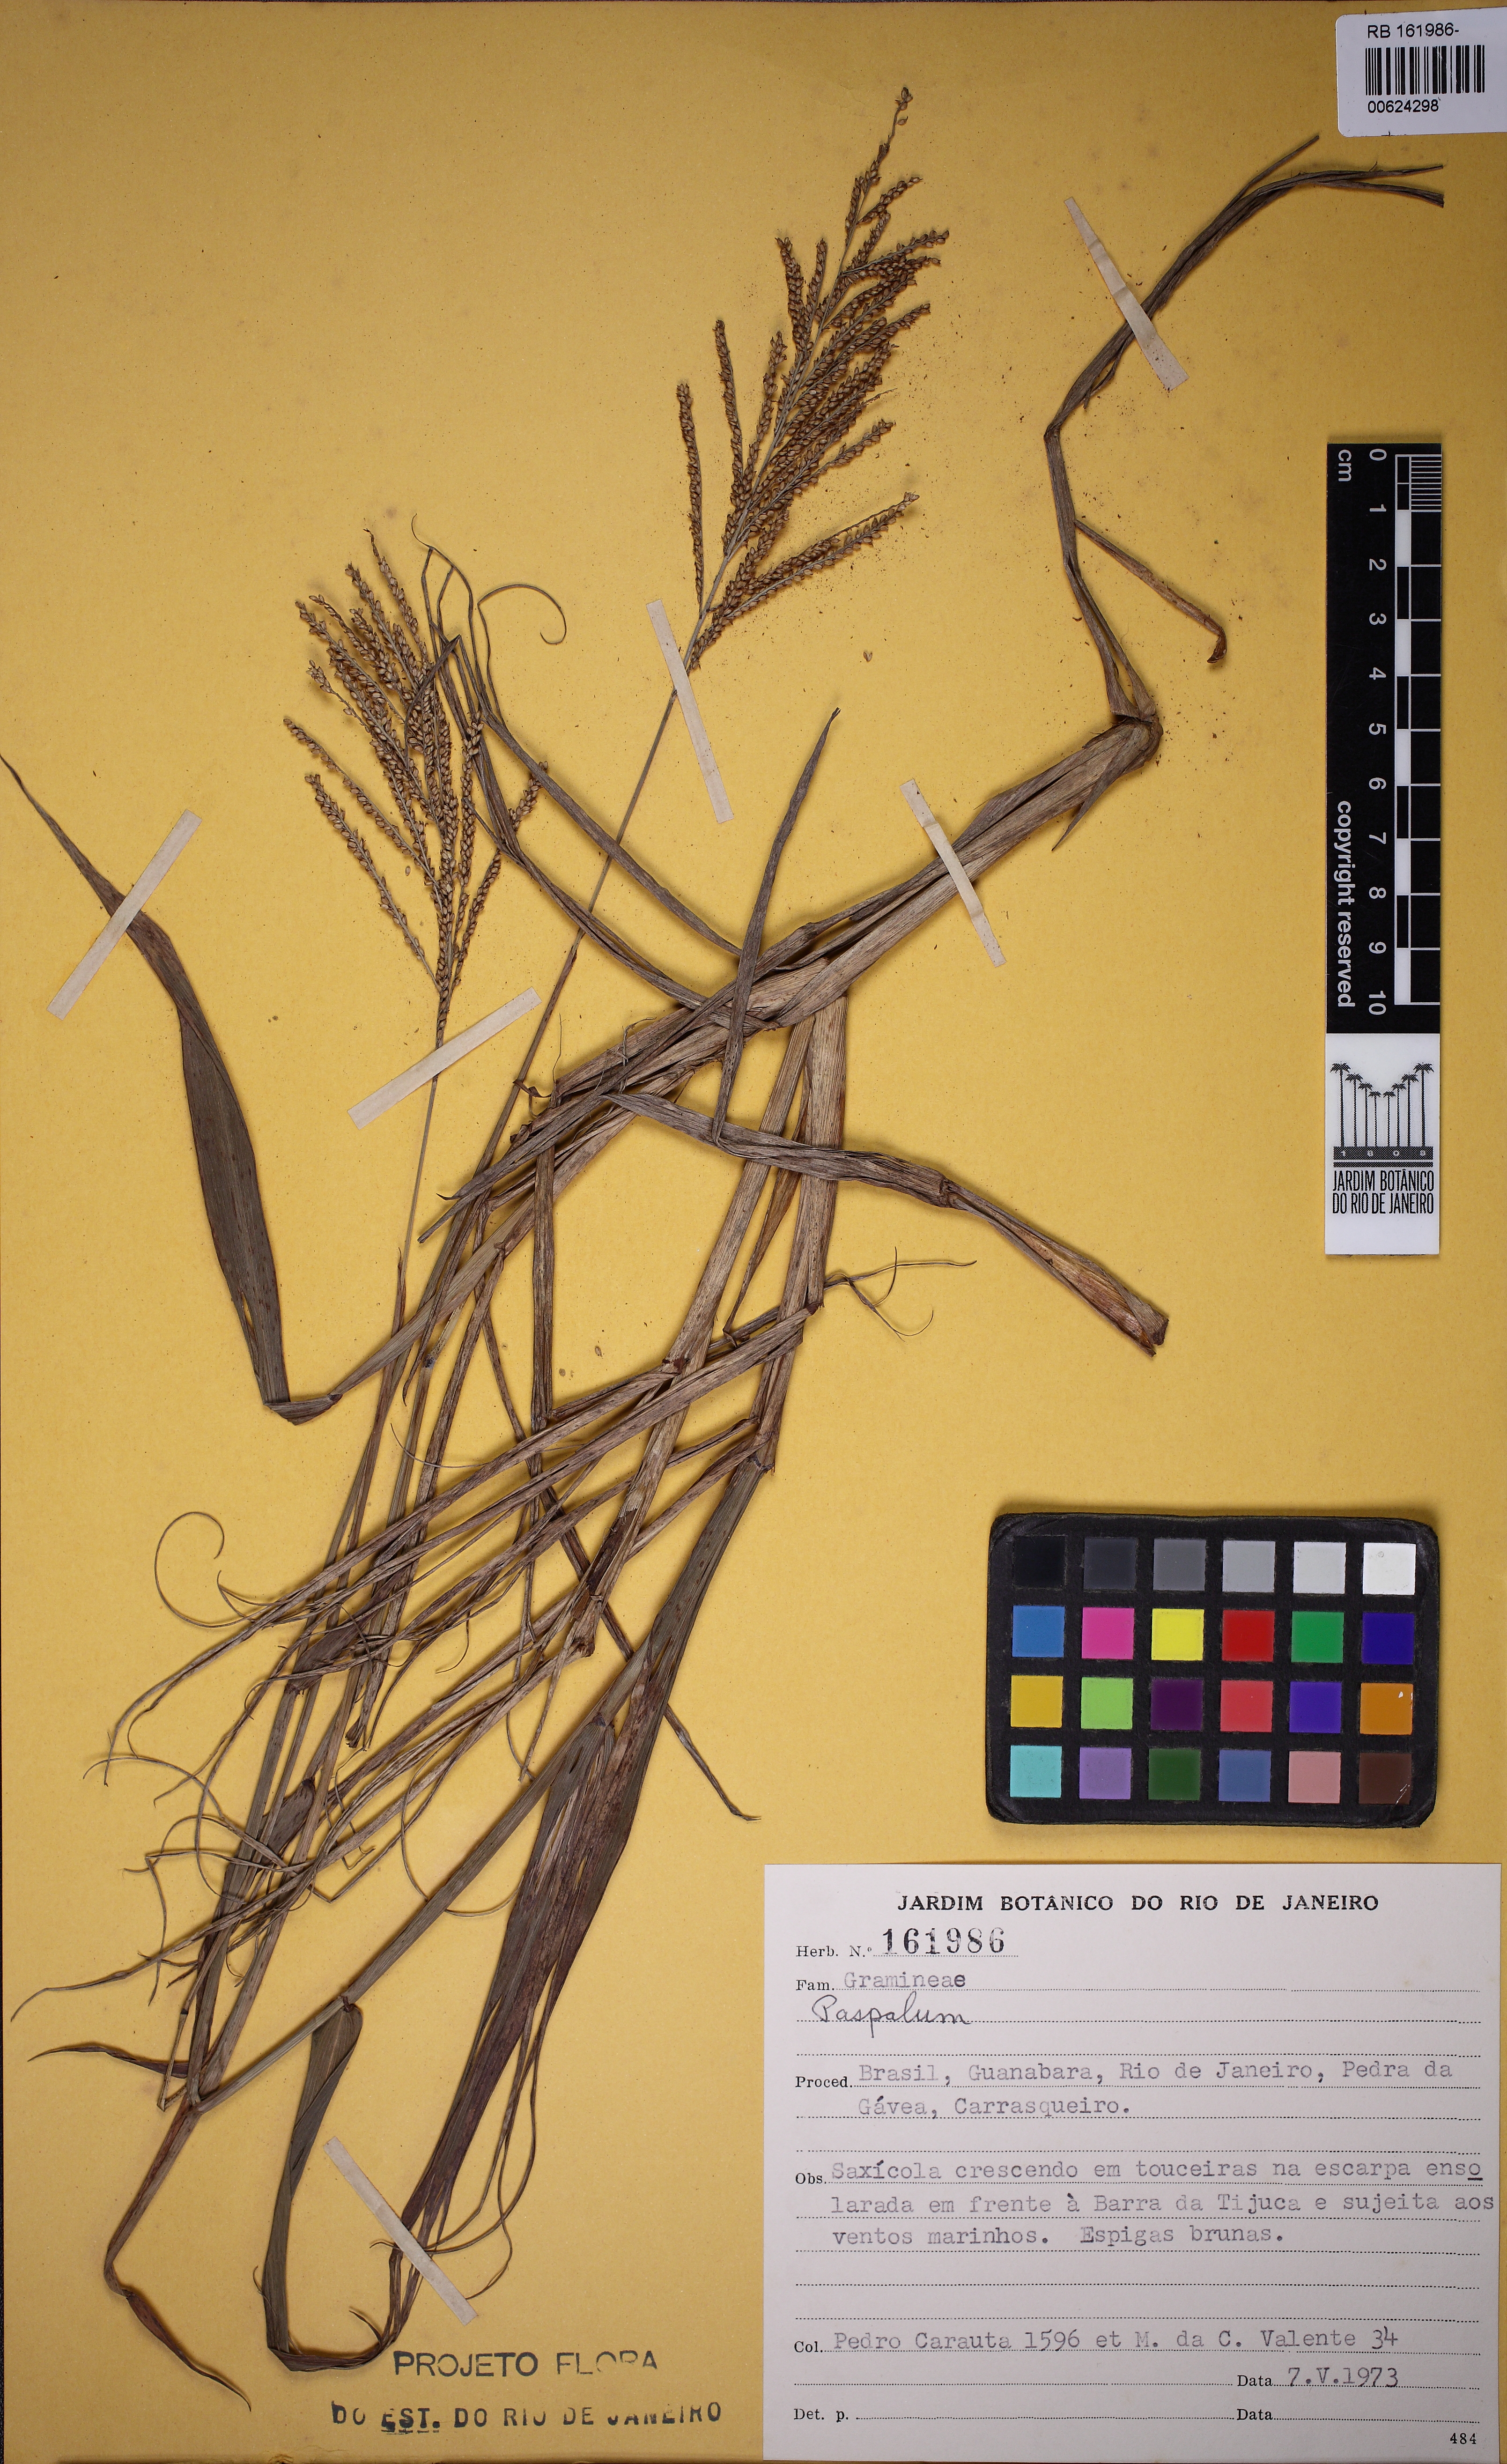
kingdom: Plantae
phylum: Tracheophyta
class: Liliopsida
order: Poales
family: Poaceae
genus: Paspalum
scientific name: Paspalum
